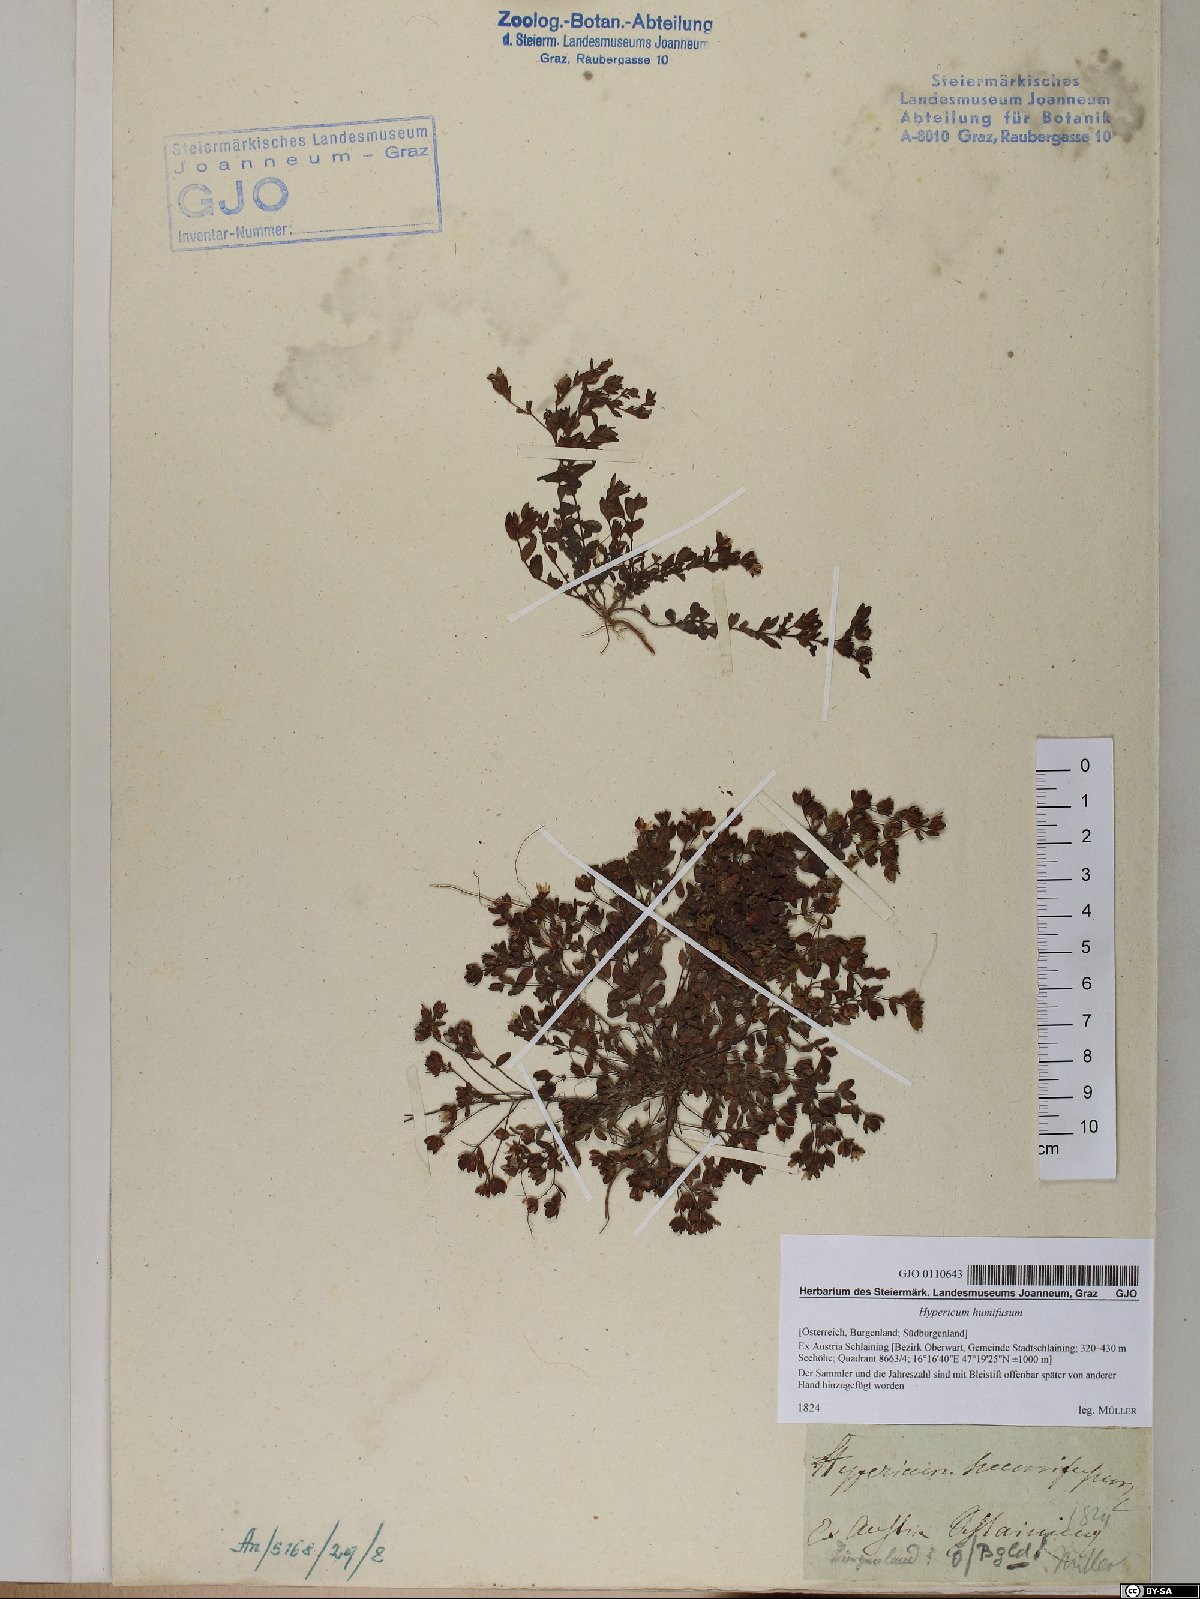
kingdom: Plantae
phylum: Tracheophyta
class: Magnoliopsida
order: Malpighiales
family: Hypericaceae
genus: Hypericum
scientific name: Hypericum humifusum
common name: Trailing st. john's-wort
